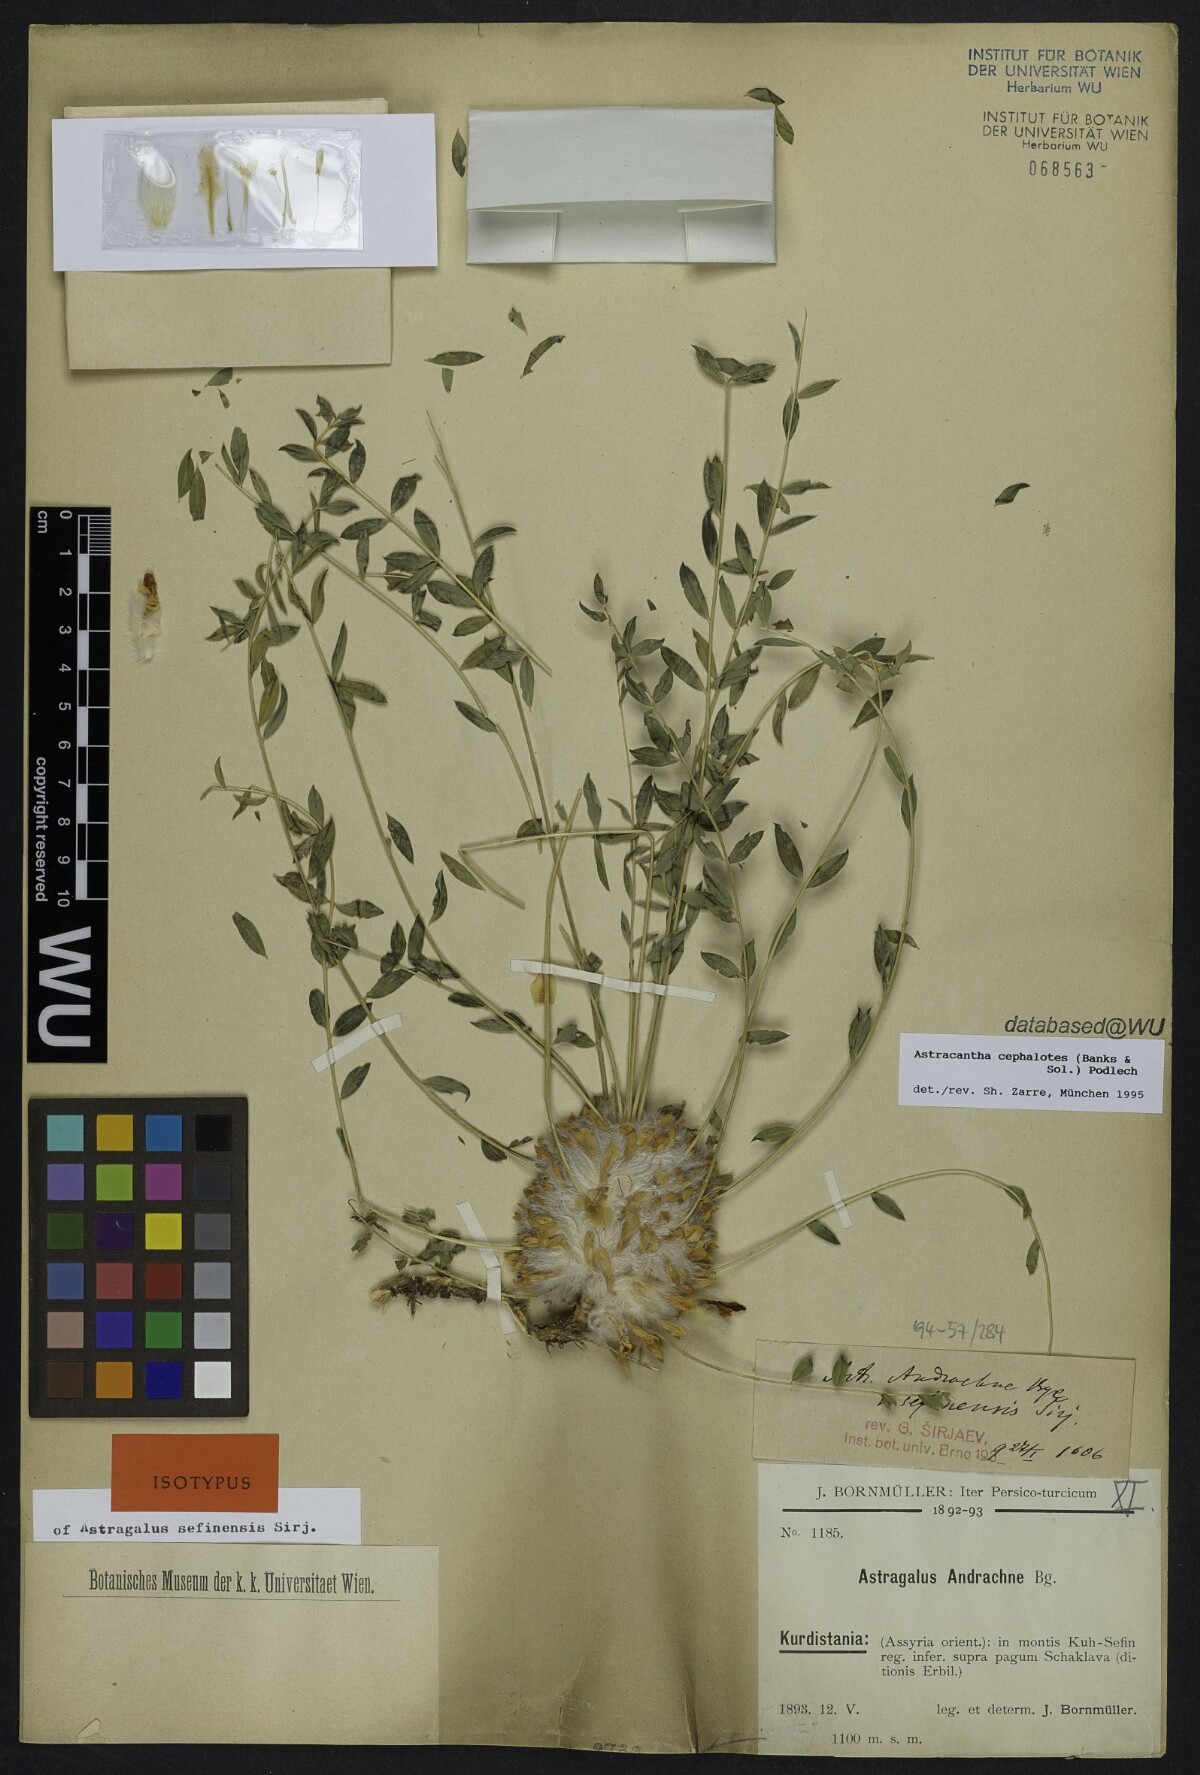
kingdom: Plantae
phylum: Tracheophyta
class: Magnoliopsida
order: Fabales
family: Fabaceae
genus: Astragalus
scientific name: Astragalus cephalotes
